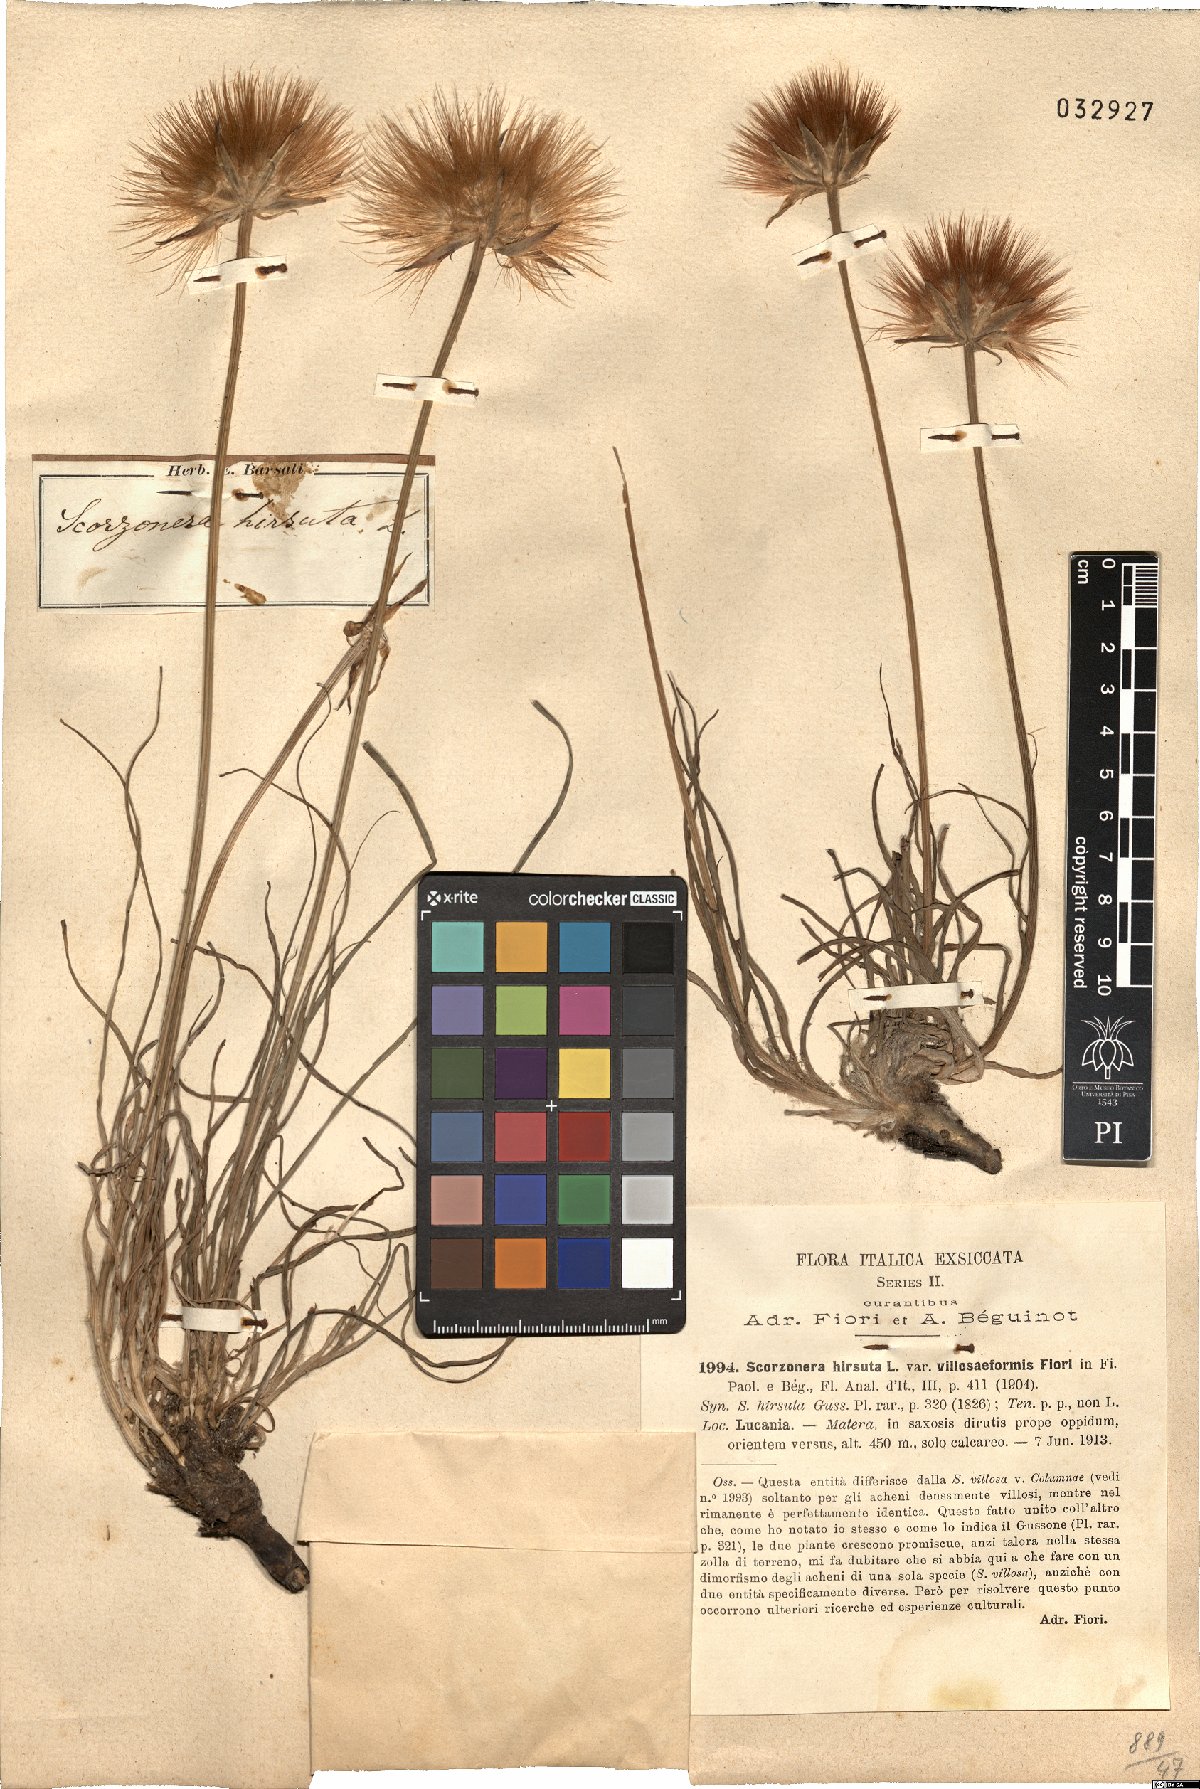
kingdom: Plantae
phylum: Tracheophyta
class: Magnoliopsida
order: Asterales
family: Asteraceae
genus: Gelasia
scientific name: Gelasia villosa
